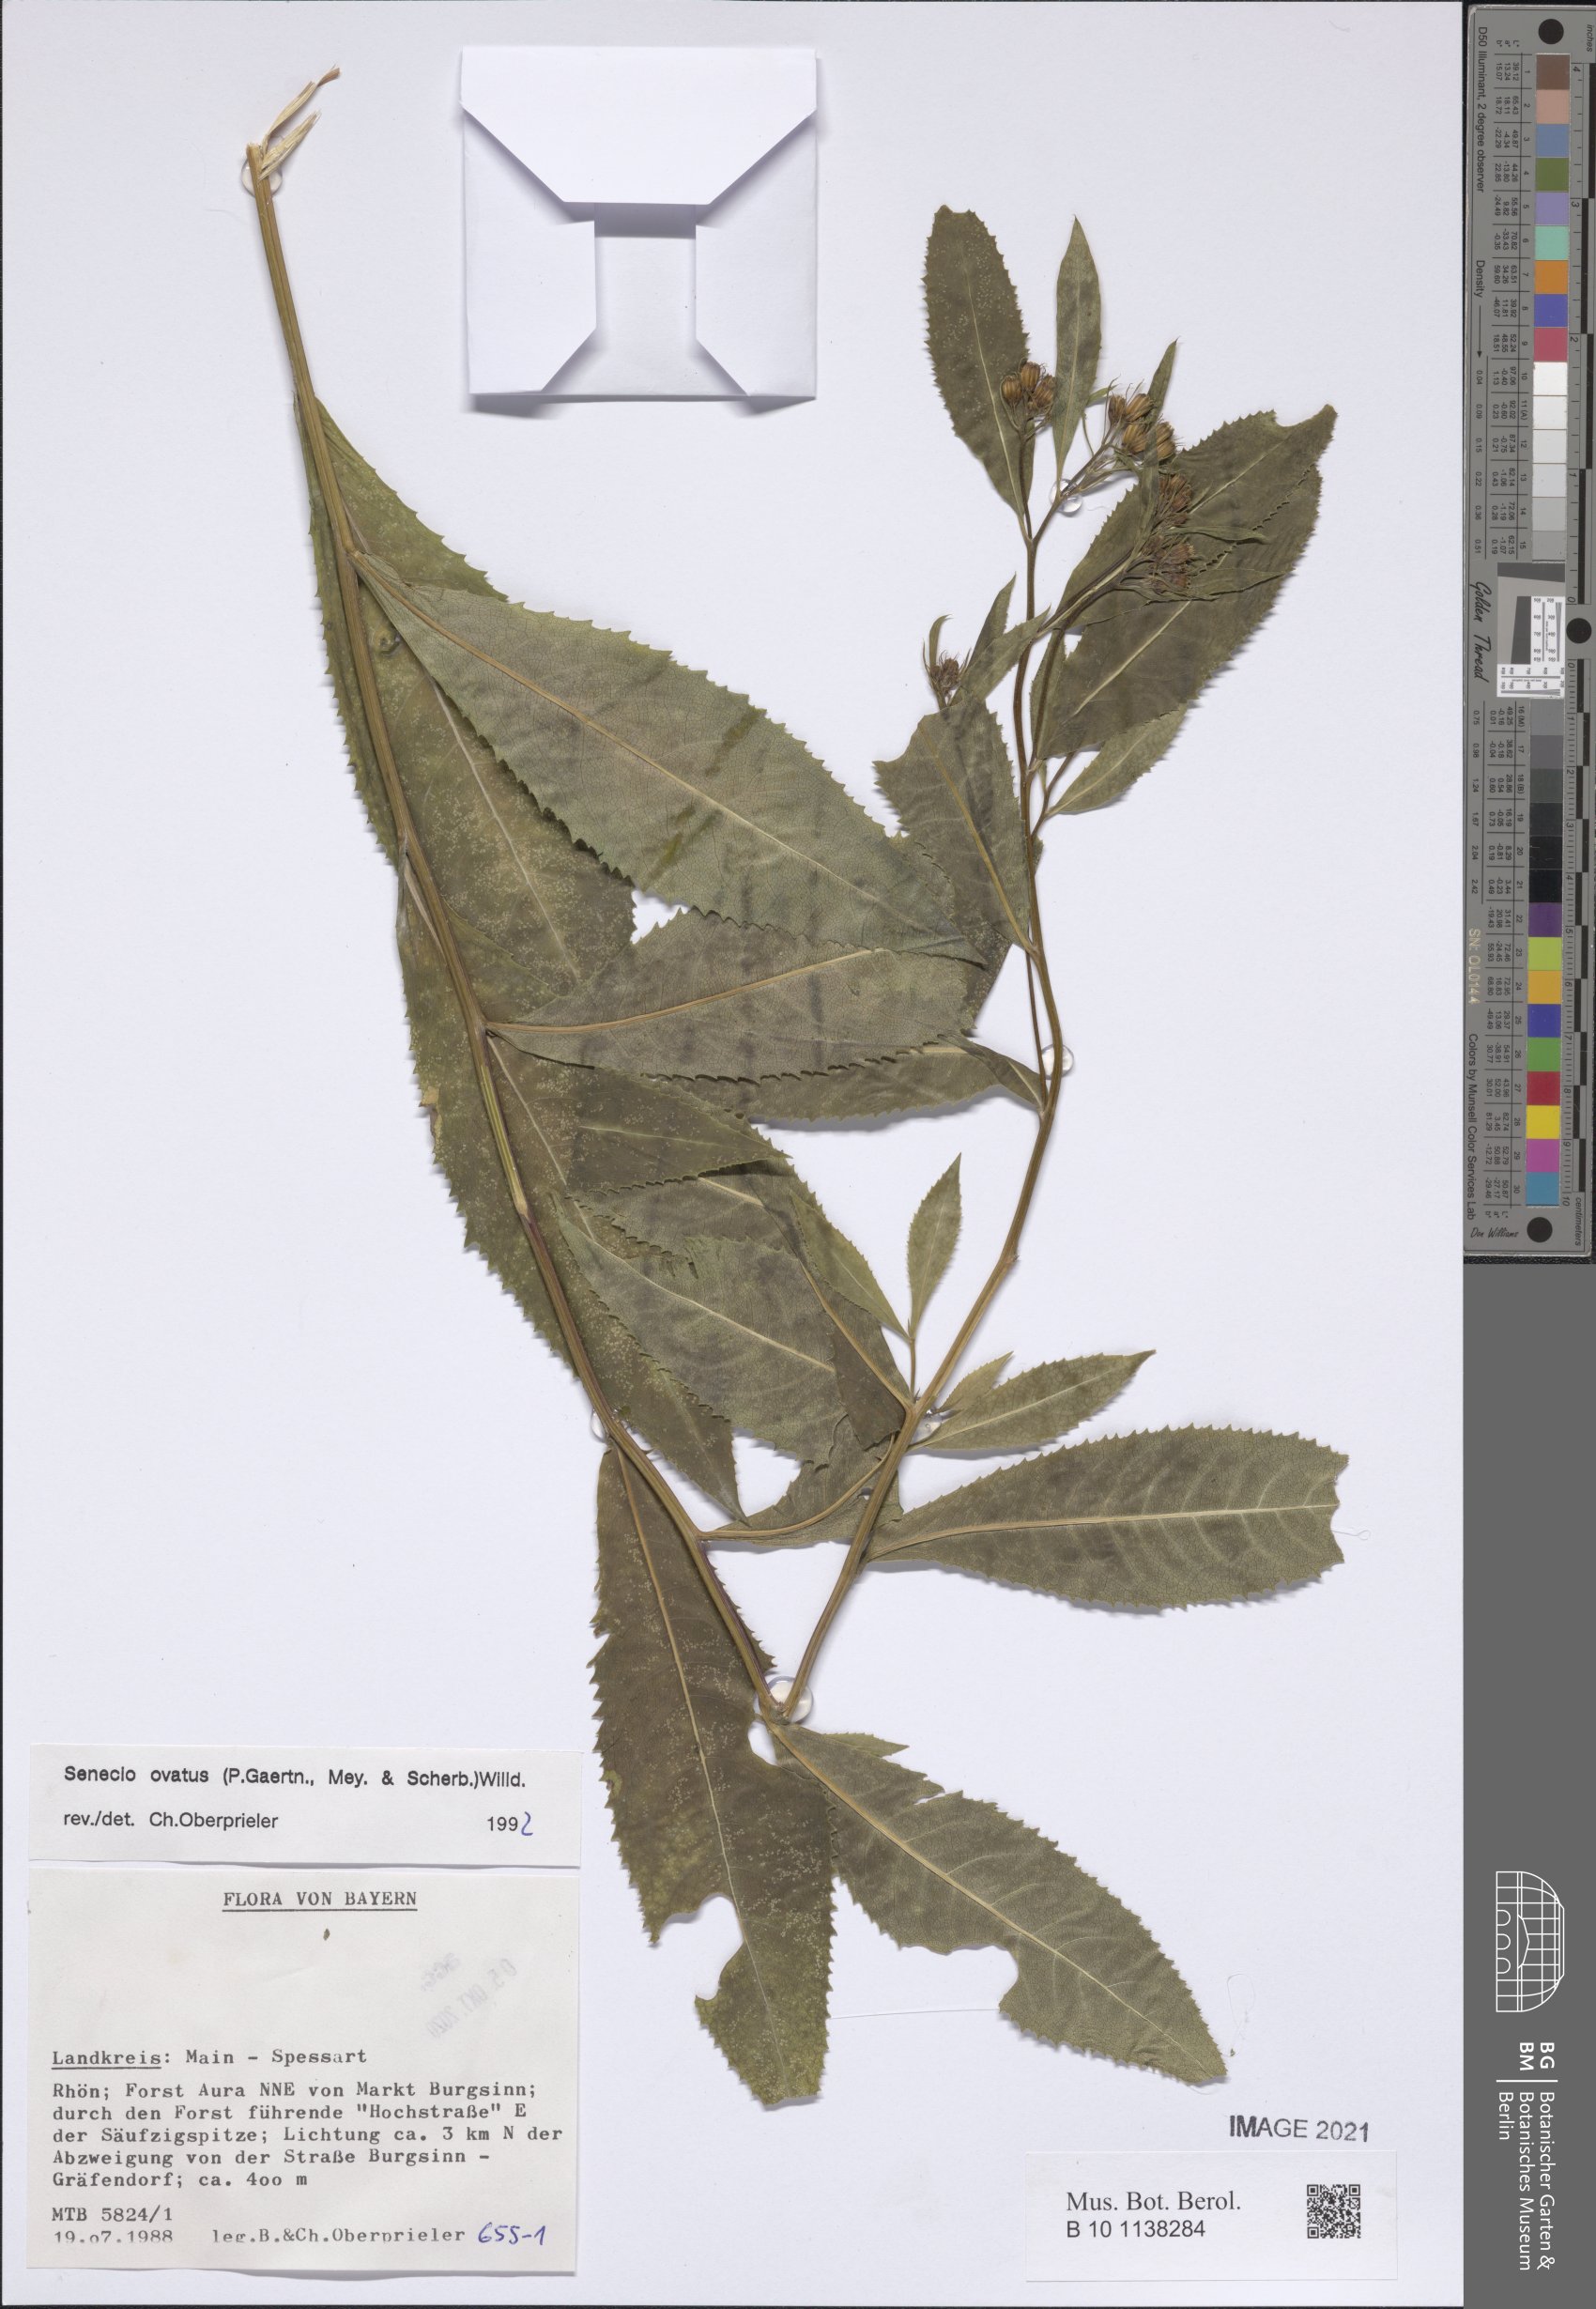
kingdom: Plantae
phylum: Tracheophyta
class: Magnoliopsida
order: Asterales
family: Asteraceae
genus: Senecio
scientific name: Senecio ovatus
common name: Wood ragwort
